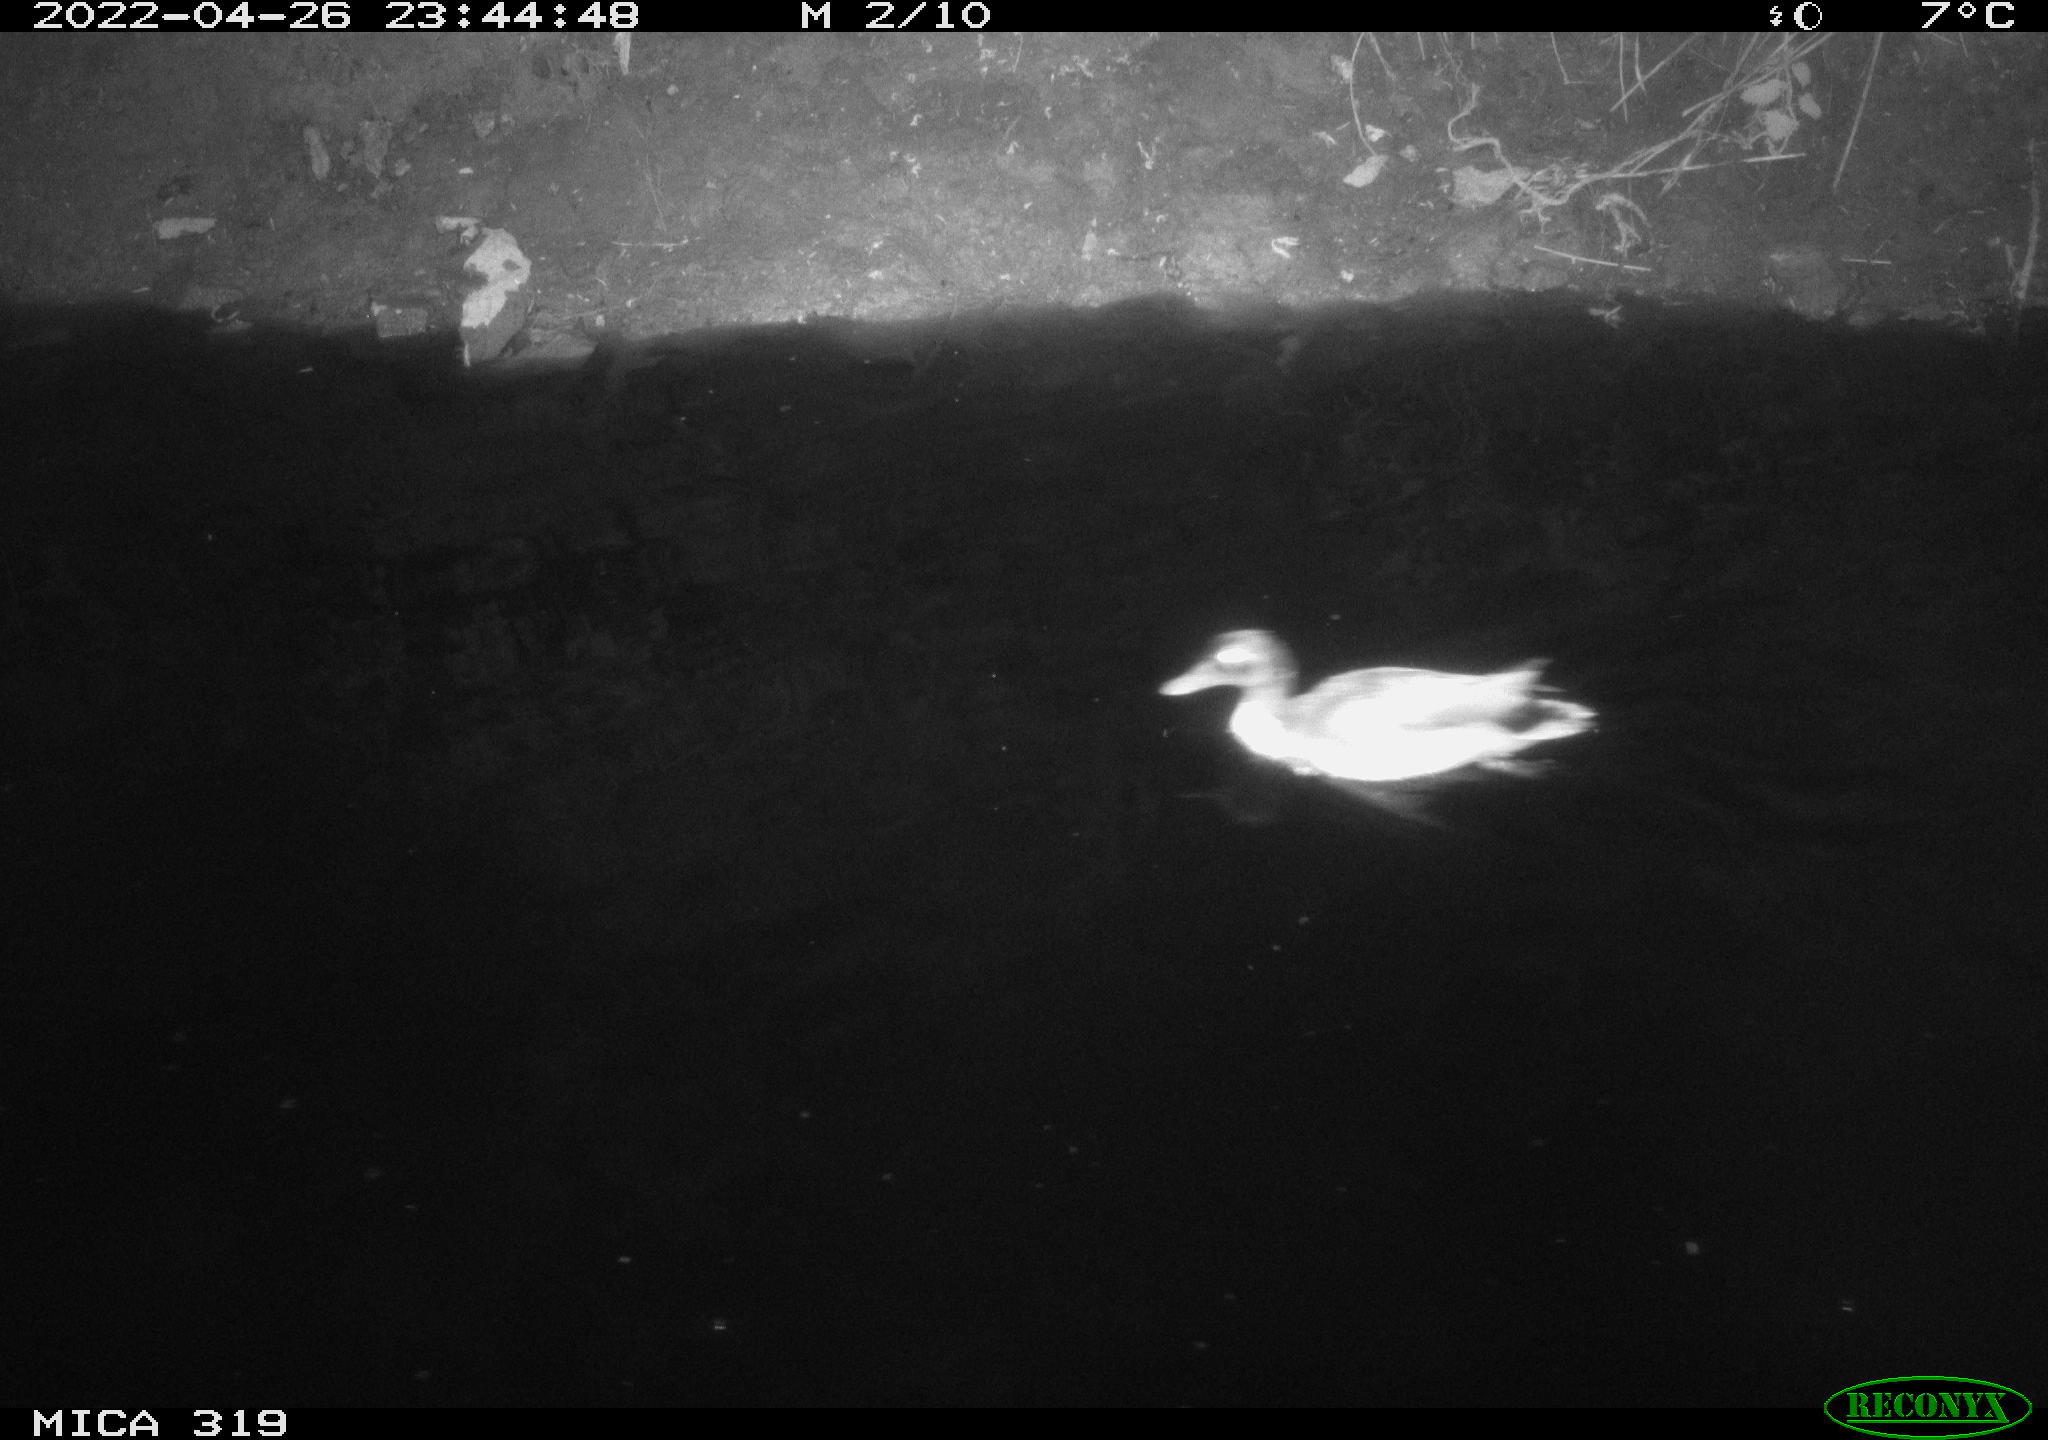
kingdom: Animalia
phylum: Chordata
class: Aves
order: Anseriformes
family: Anatidae
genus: Anas
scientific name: Anas platyrhynchos
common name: Mallard
